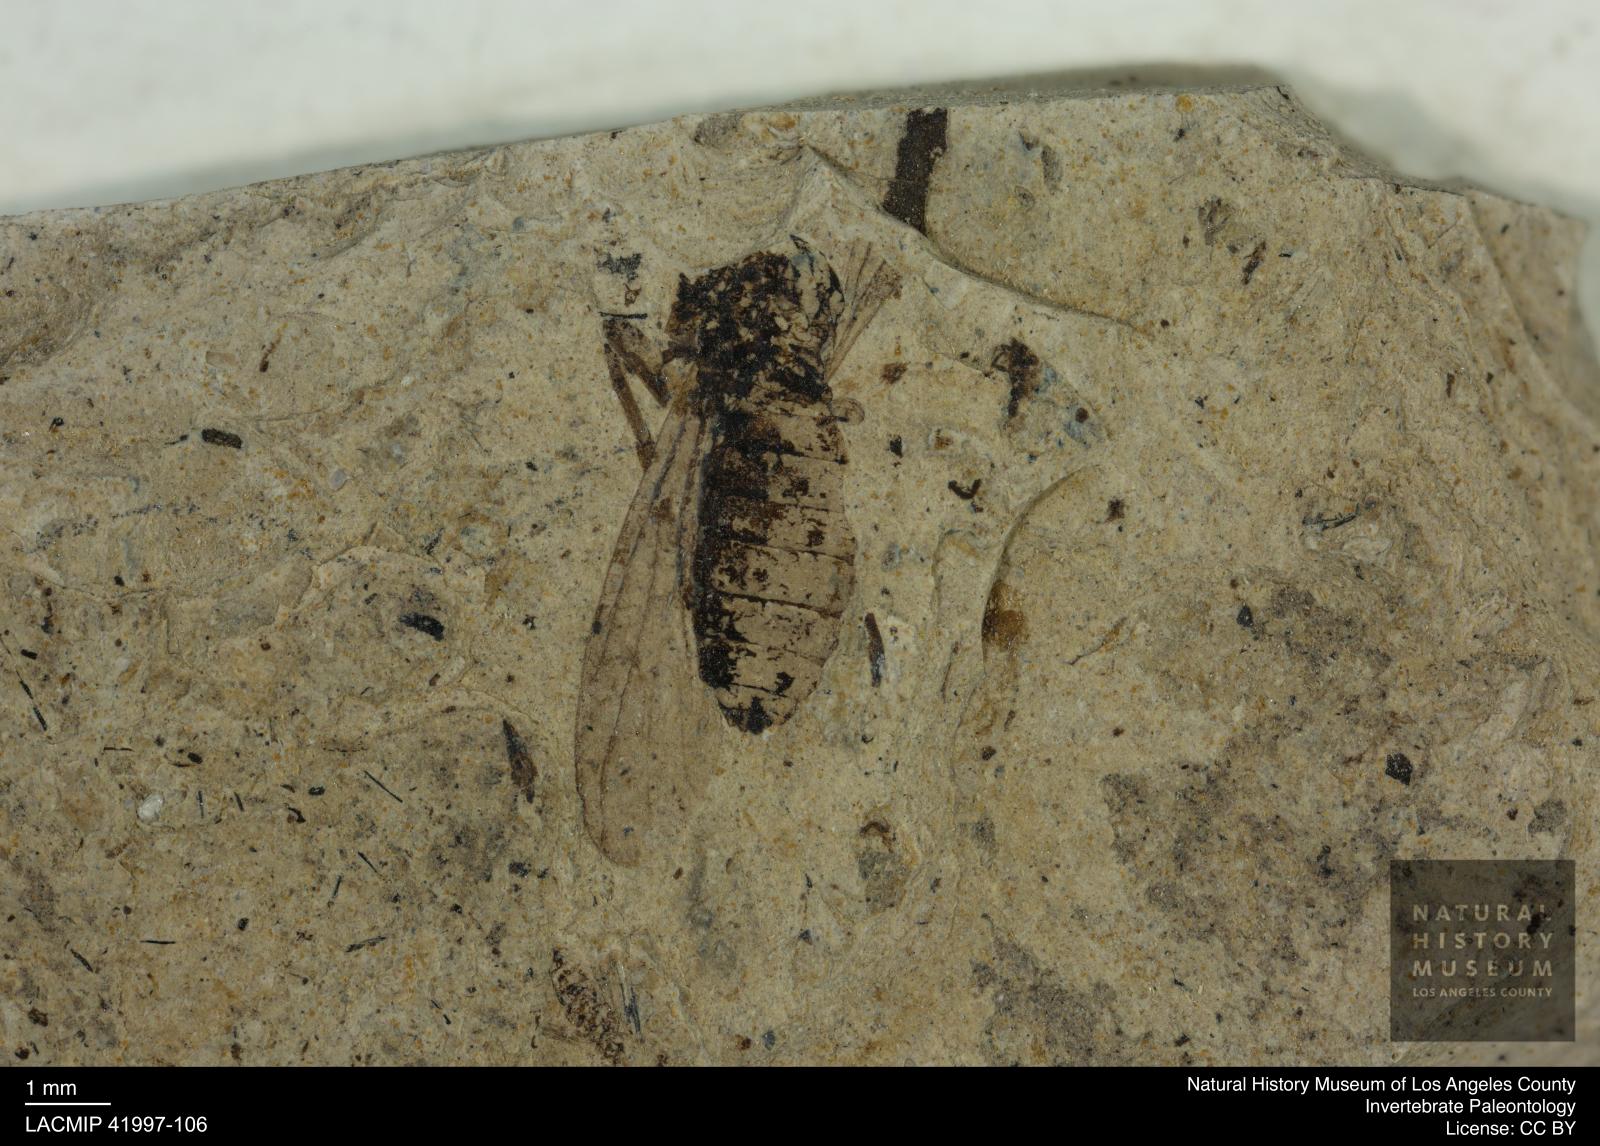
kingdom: Animalia
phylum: Arthropoda
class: Insecta
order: Diptera
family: Bibionidae
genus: Penthetria
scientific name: Penthetria
